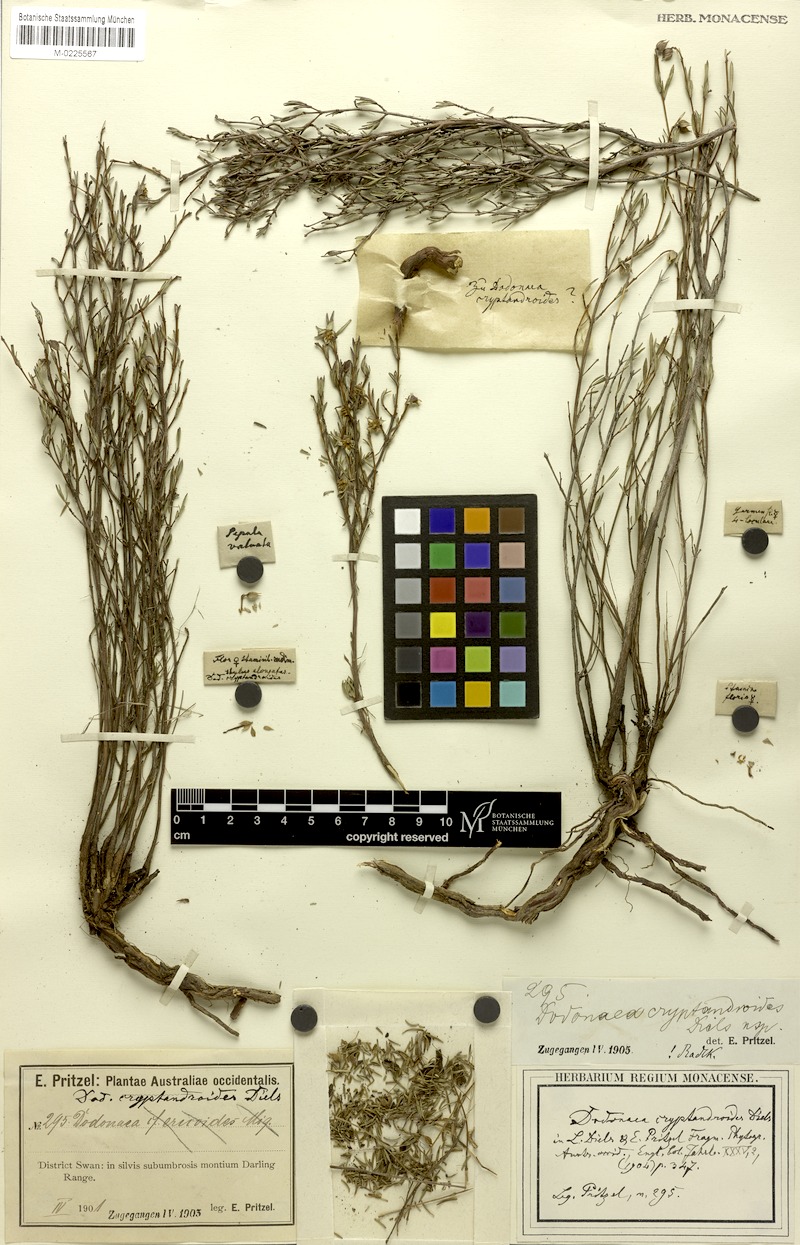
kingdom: Plantae
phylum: Tracheophyta
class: Magnoliopsida
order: Sapindales
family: Sapindaceae
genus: Dodonaea
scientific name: Dodonaea ericoides
